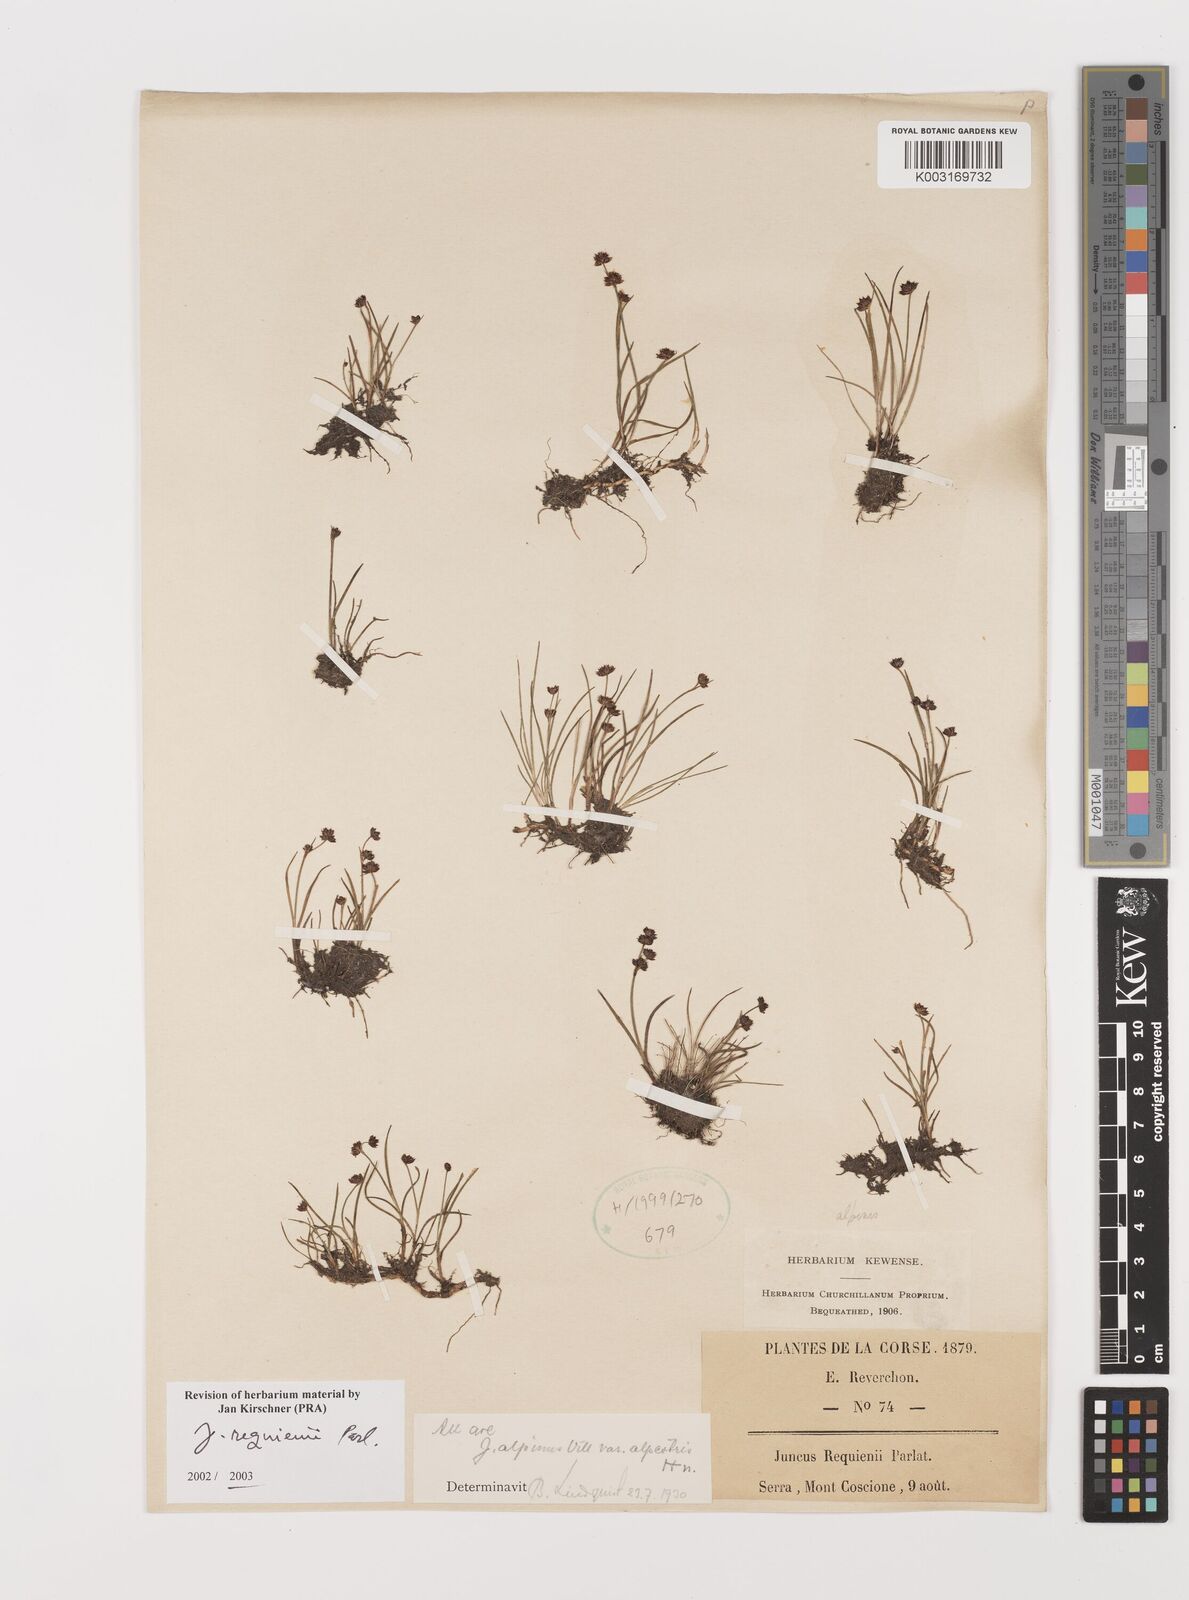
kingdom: Plantae
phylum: Tracheophyta
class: Liliopsida
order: Poales
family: Juncaceae
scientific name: Juncaceae
